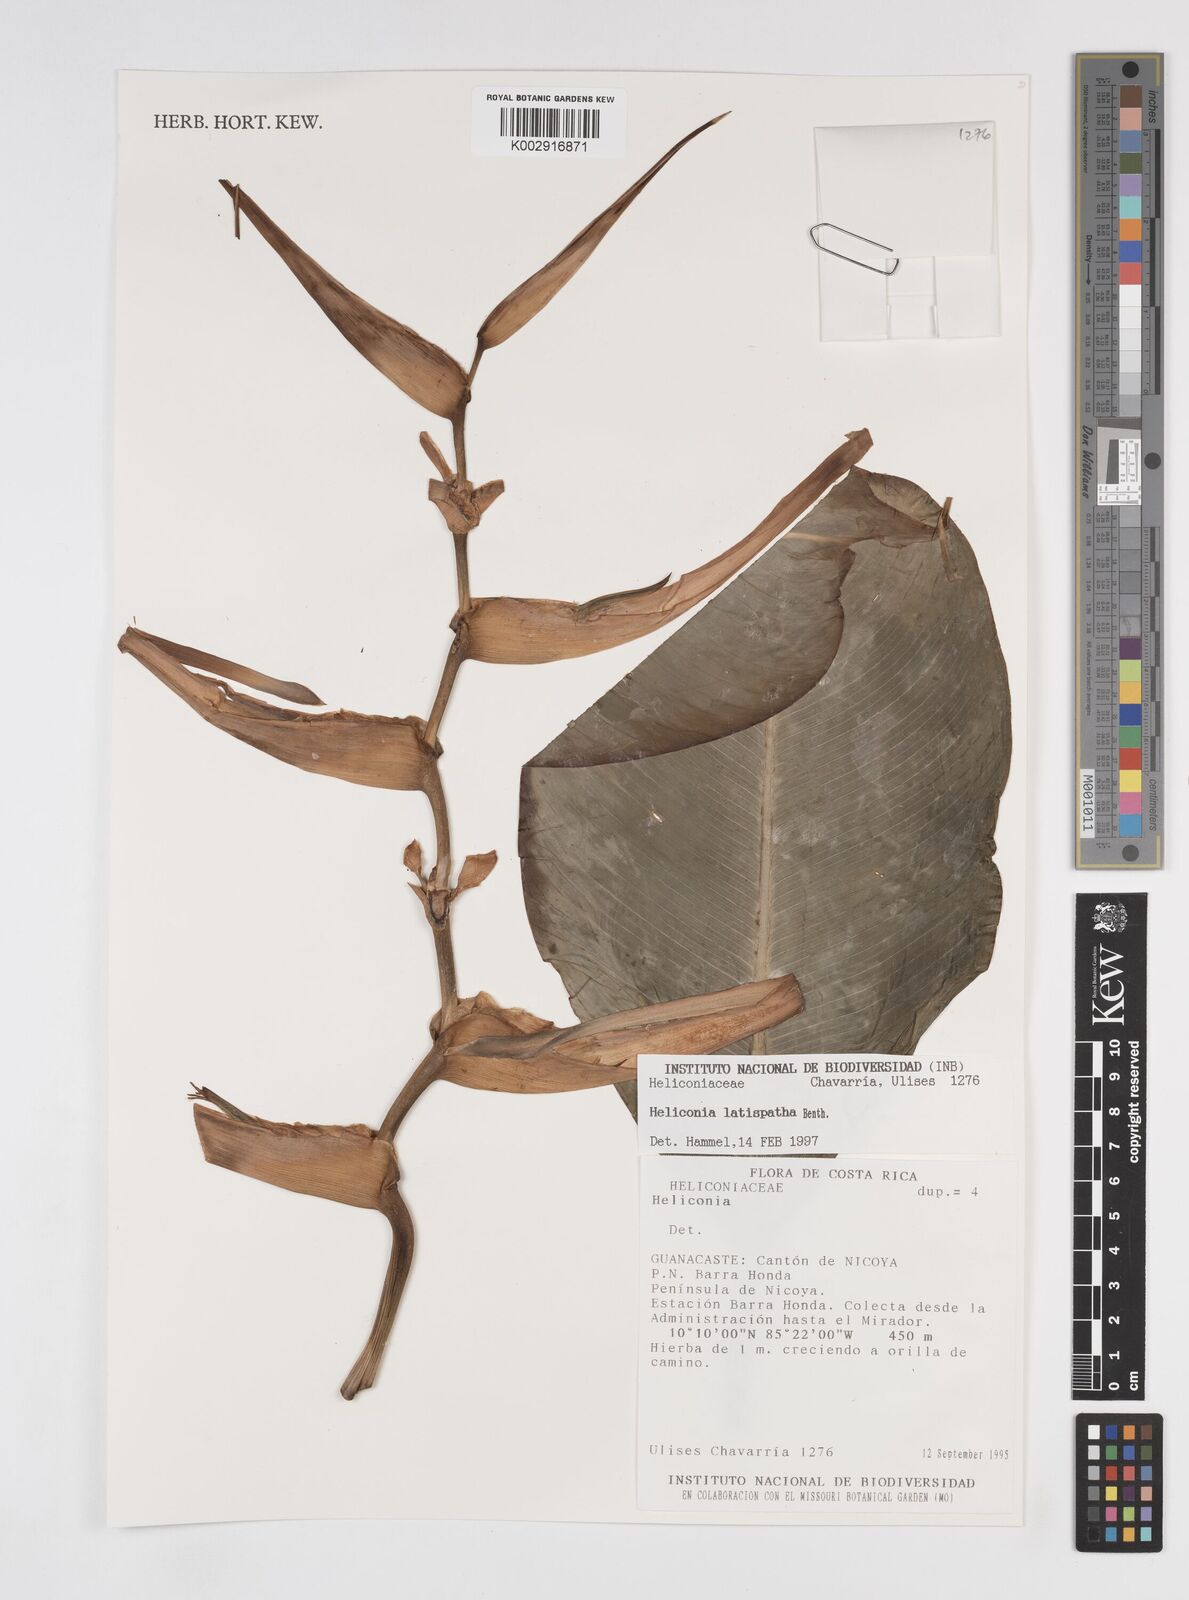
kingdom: Plantae
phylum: Tracheophyta
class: Liliopsida
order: Zingiberales
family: Heliconiaceae
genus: Heliconia
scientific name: Heliconia latispatha
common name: Expanded lobsterclaw
